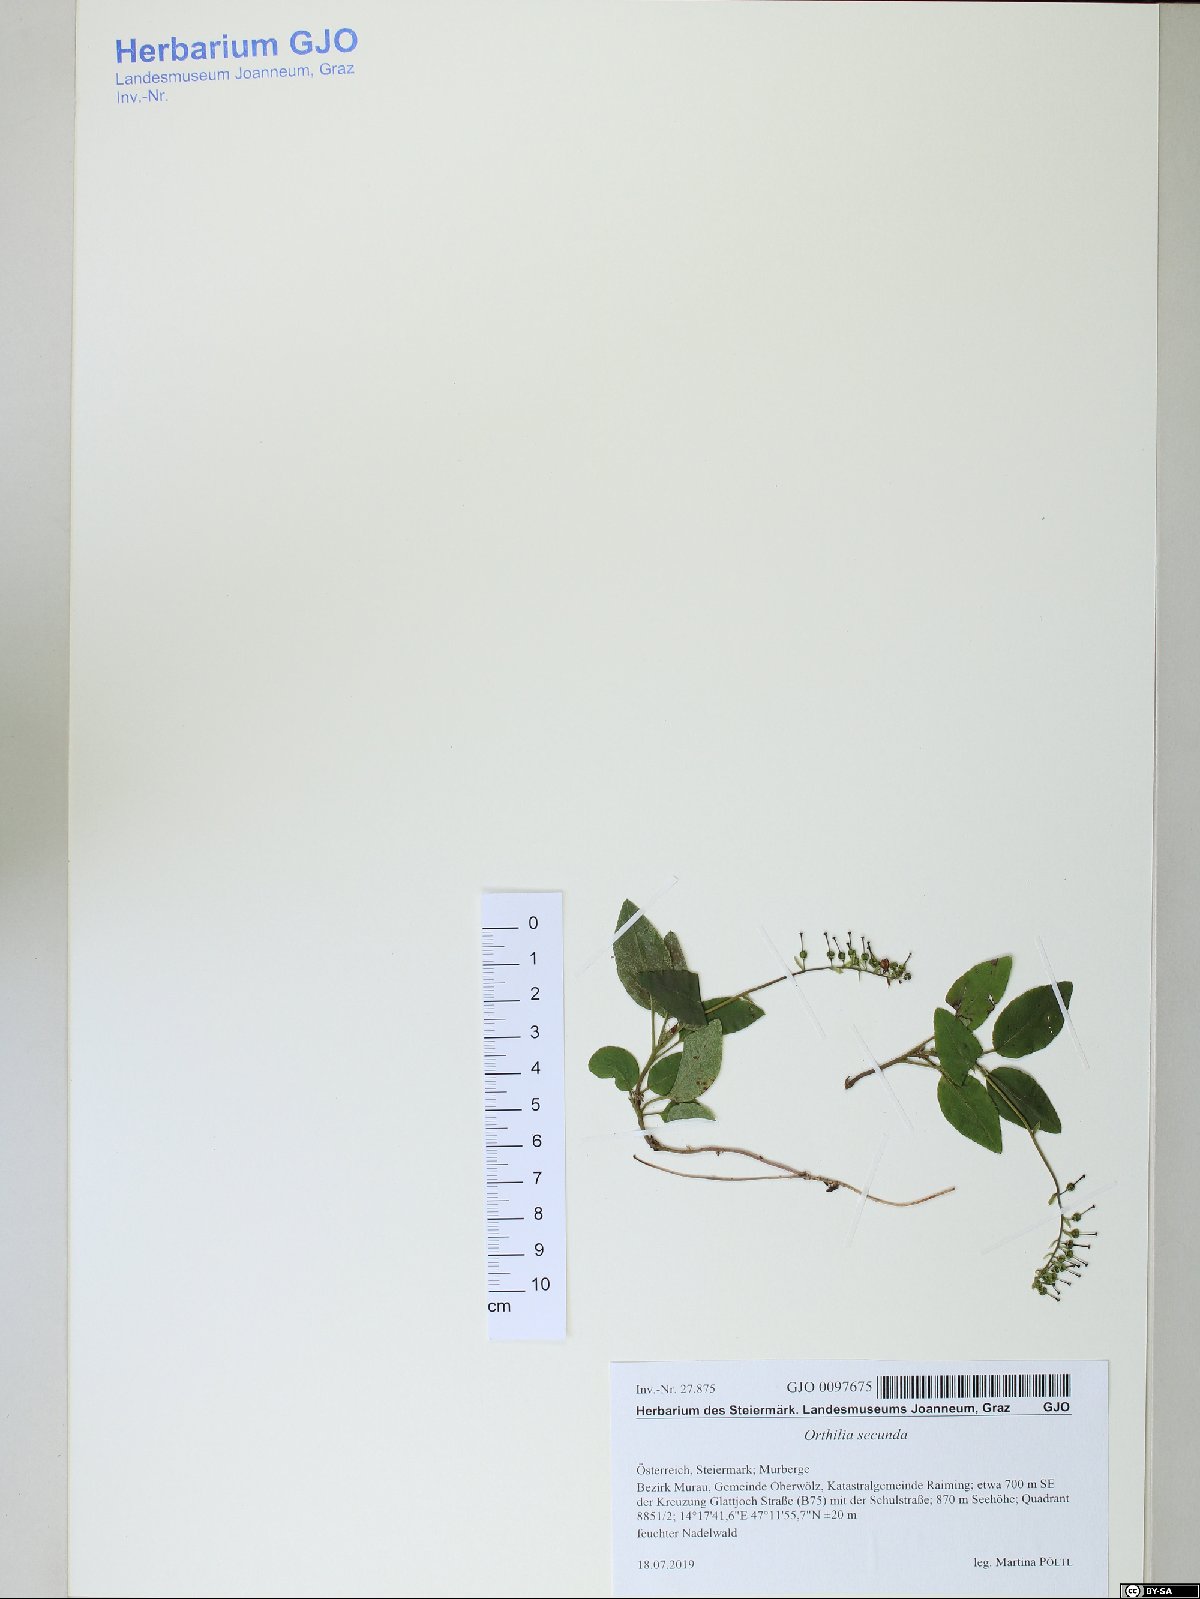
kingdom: Plantae
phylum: Tracheophyta
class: Magnoliopsida
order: Ericales
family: Ericaceae
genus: Orthilia
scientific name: Orthilia secunda
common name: One-sided orthilia
